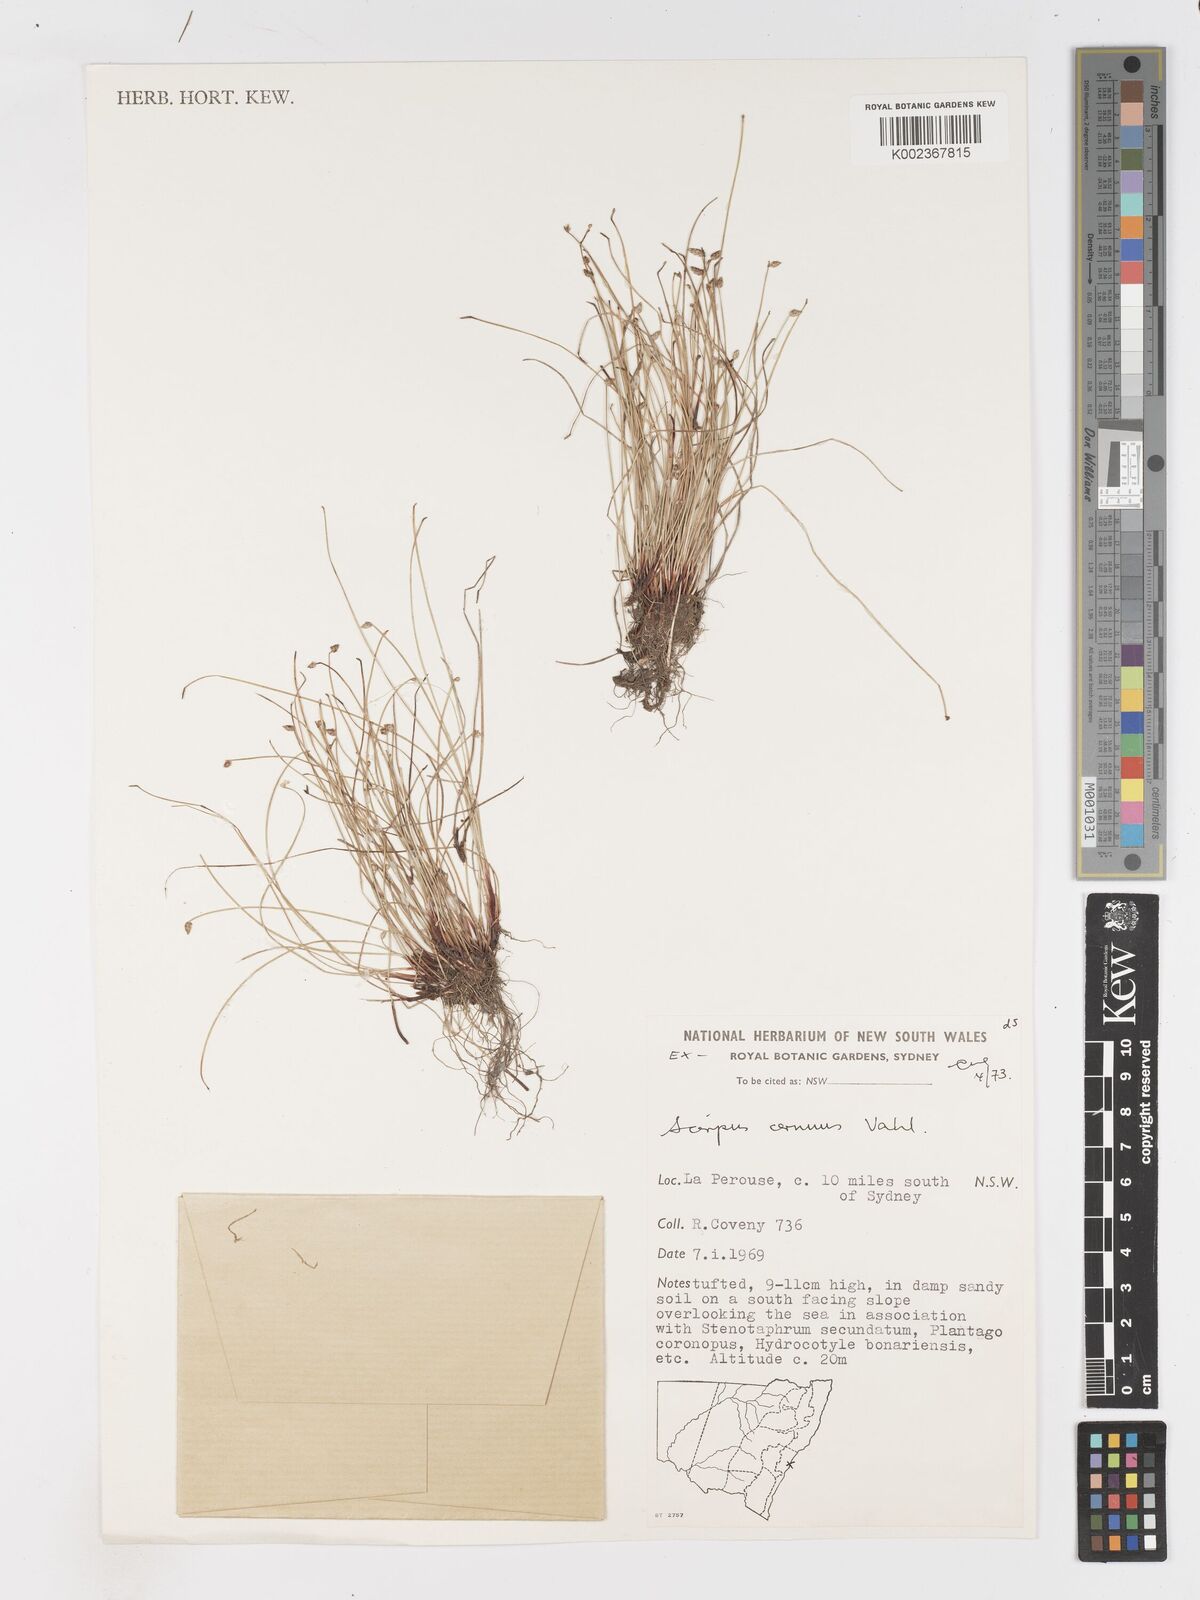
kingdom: Plantae
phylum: Tracheophyta
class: Liliopsida
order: Poales
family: Cyperaceae
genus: Isolepis
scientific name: Isolepis cernua
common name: Slender club-rush
